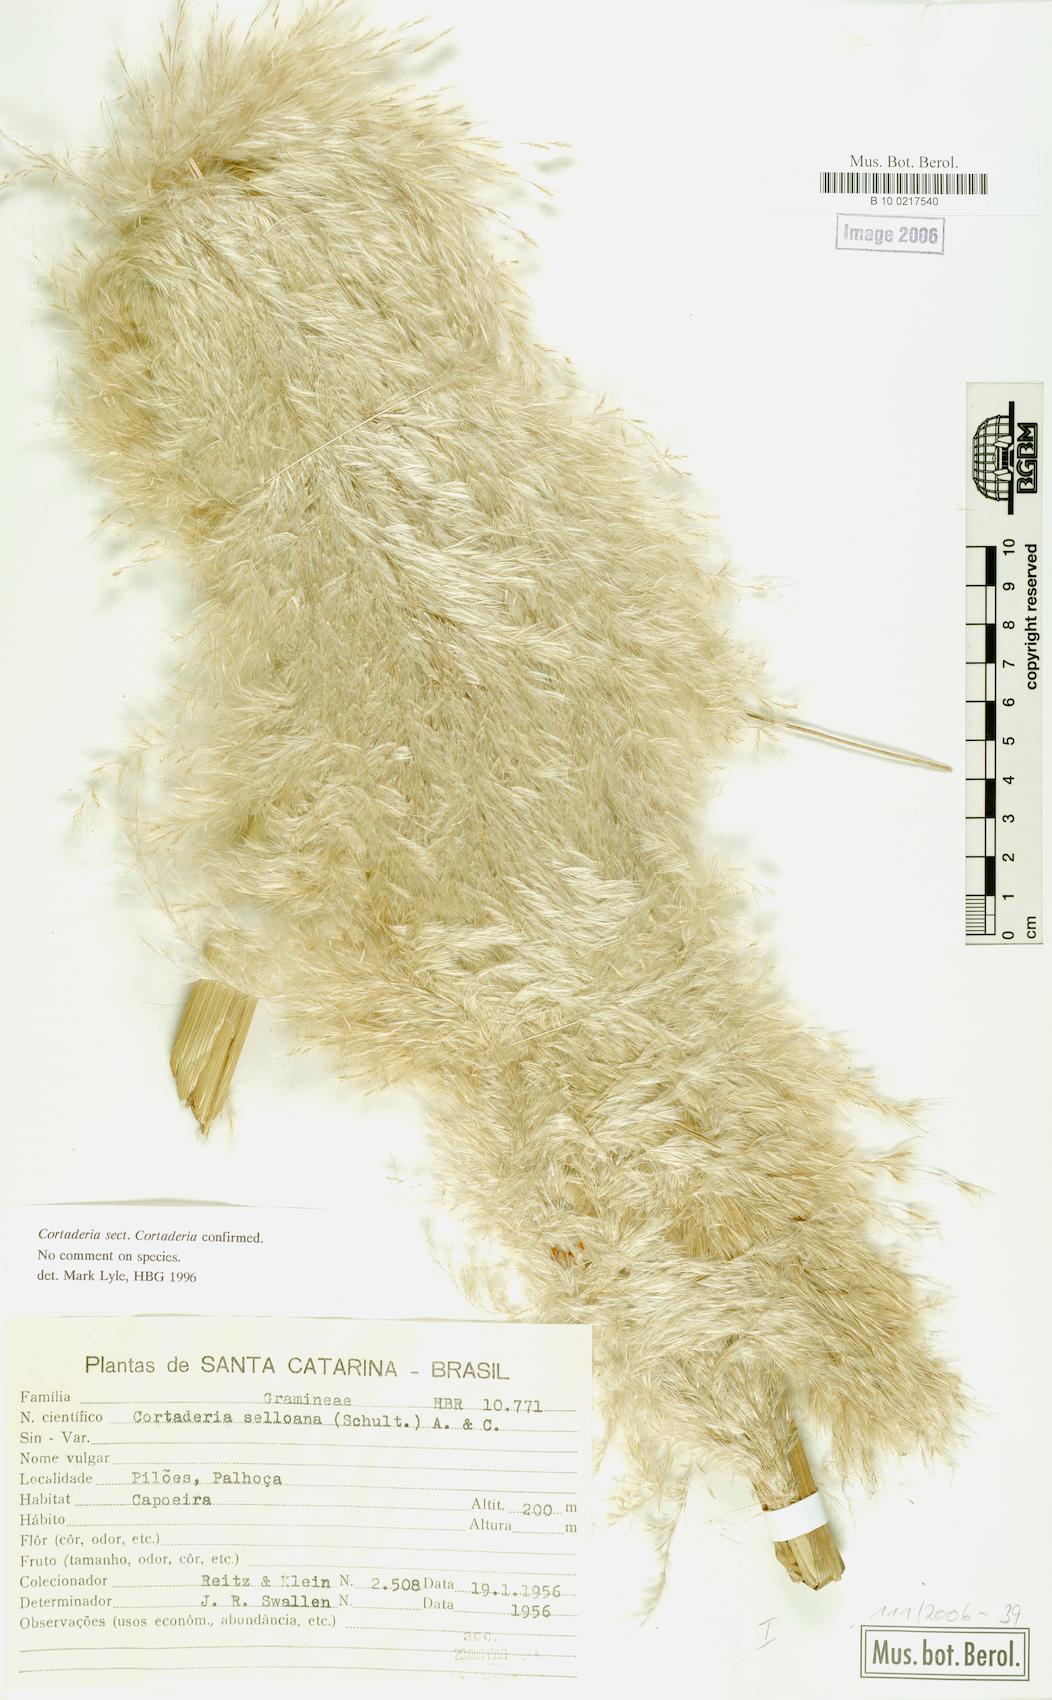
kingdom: Plantae
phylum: Tracheophyta
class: Liliopsida
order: Poales
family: Poaceae
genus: Cortaderia
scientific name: Cortaderia selloana
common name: Uruguayan pampas grass
